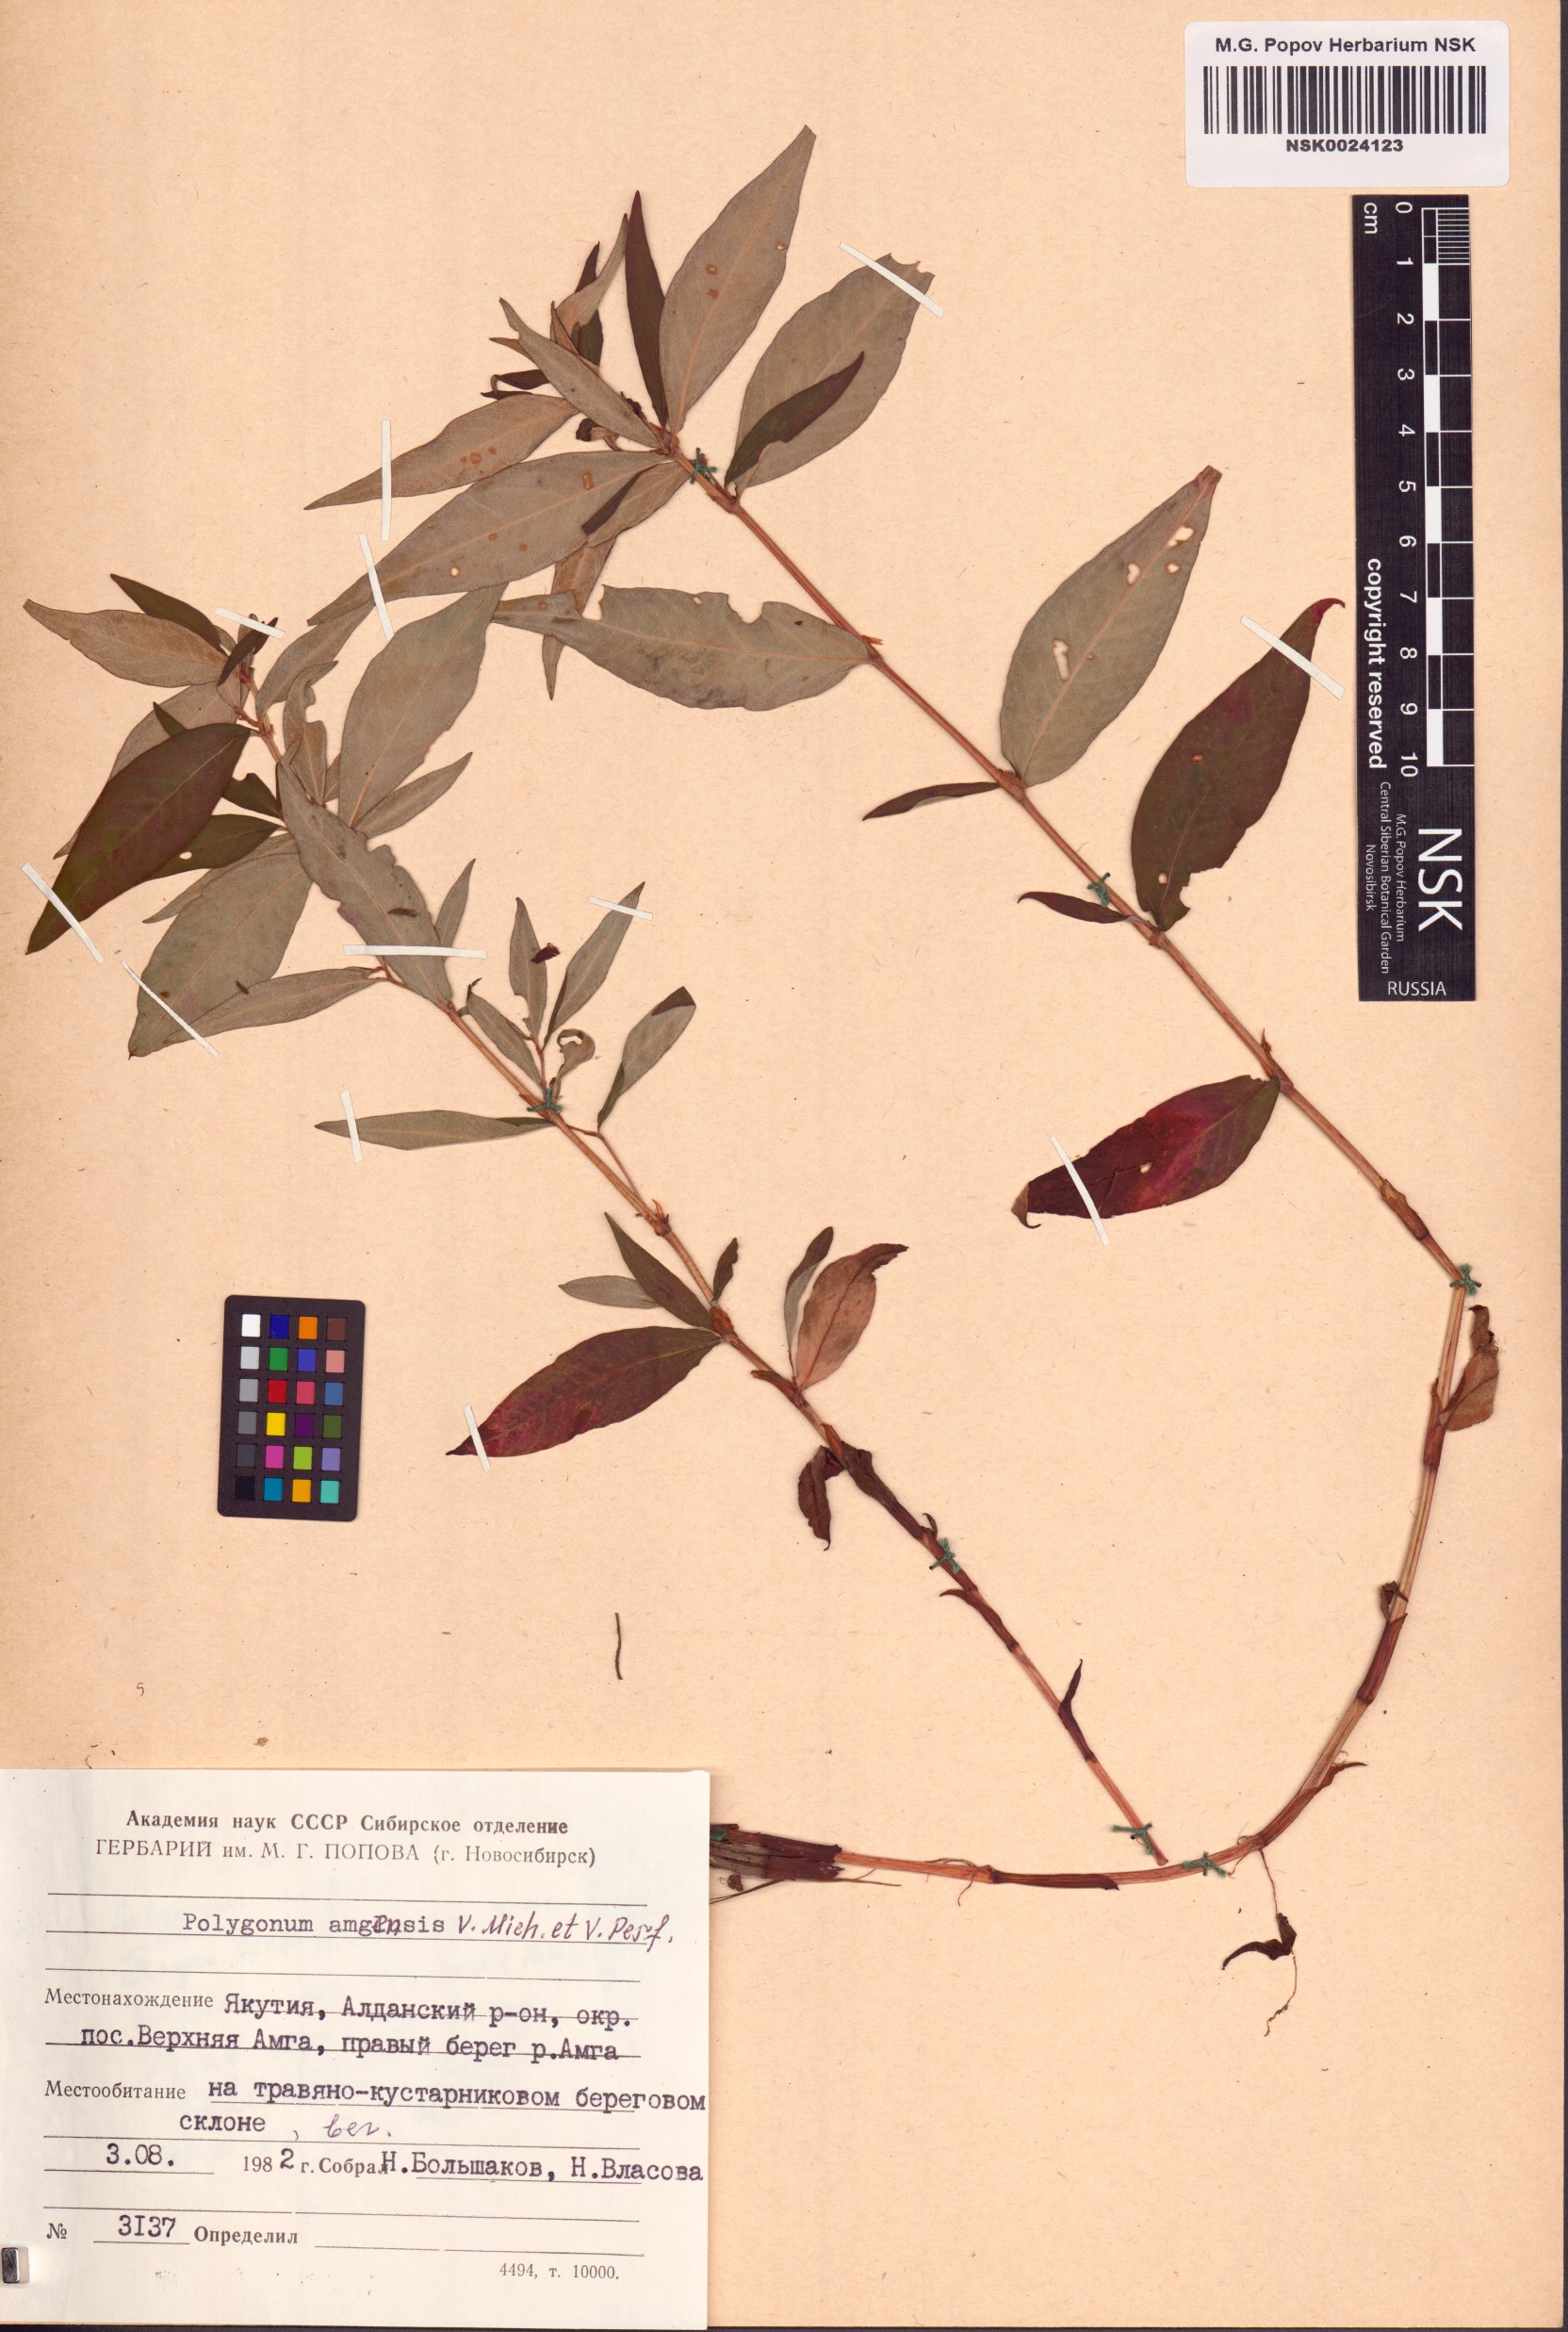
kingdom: Plantae
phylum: Tracheophyta
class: Magnoliopsida
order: Caryophyllales
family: Polygonaceae
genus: Polygonum
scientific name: Polygonum amgense
